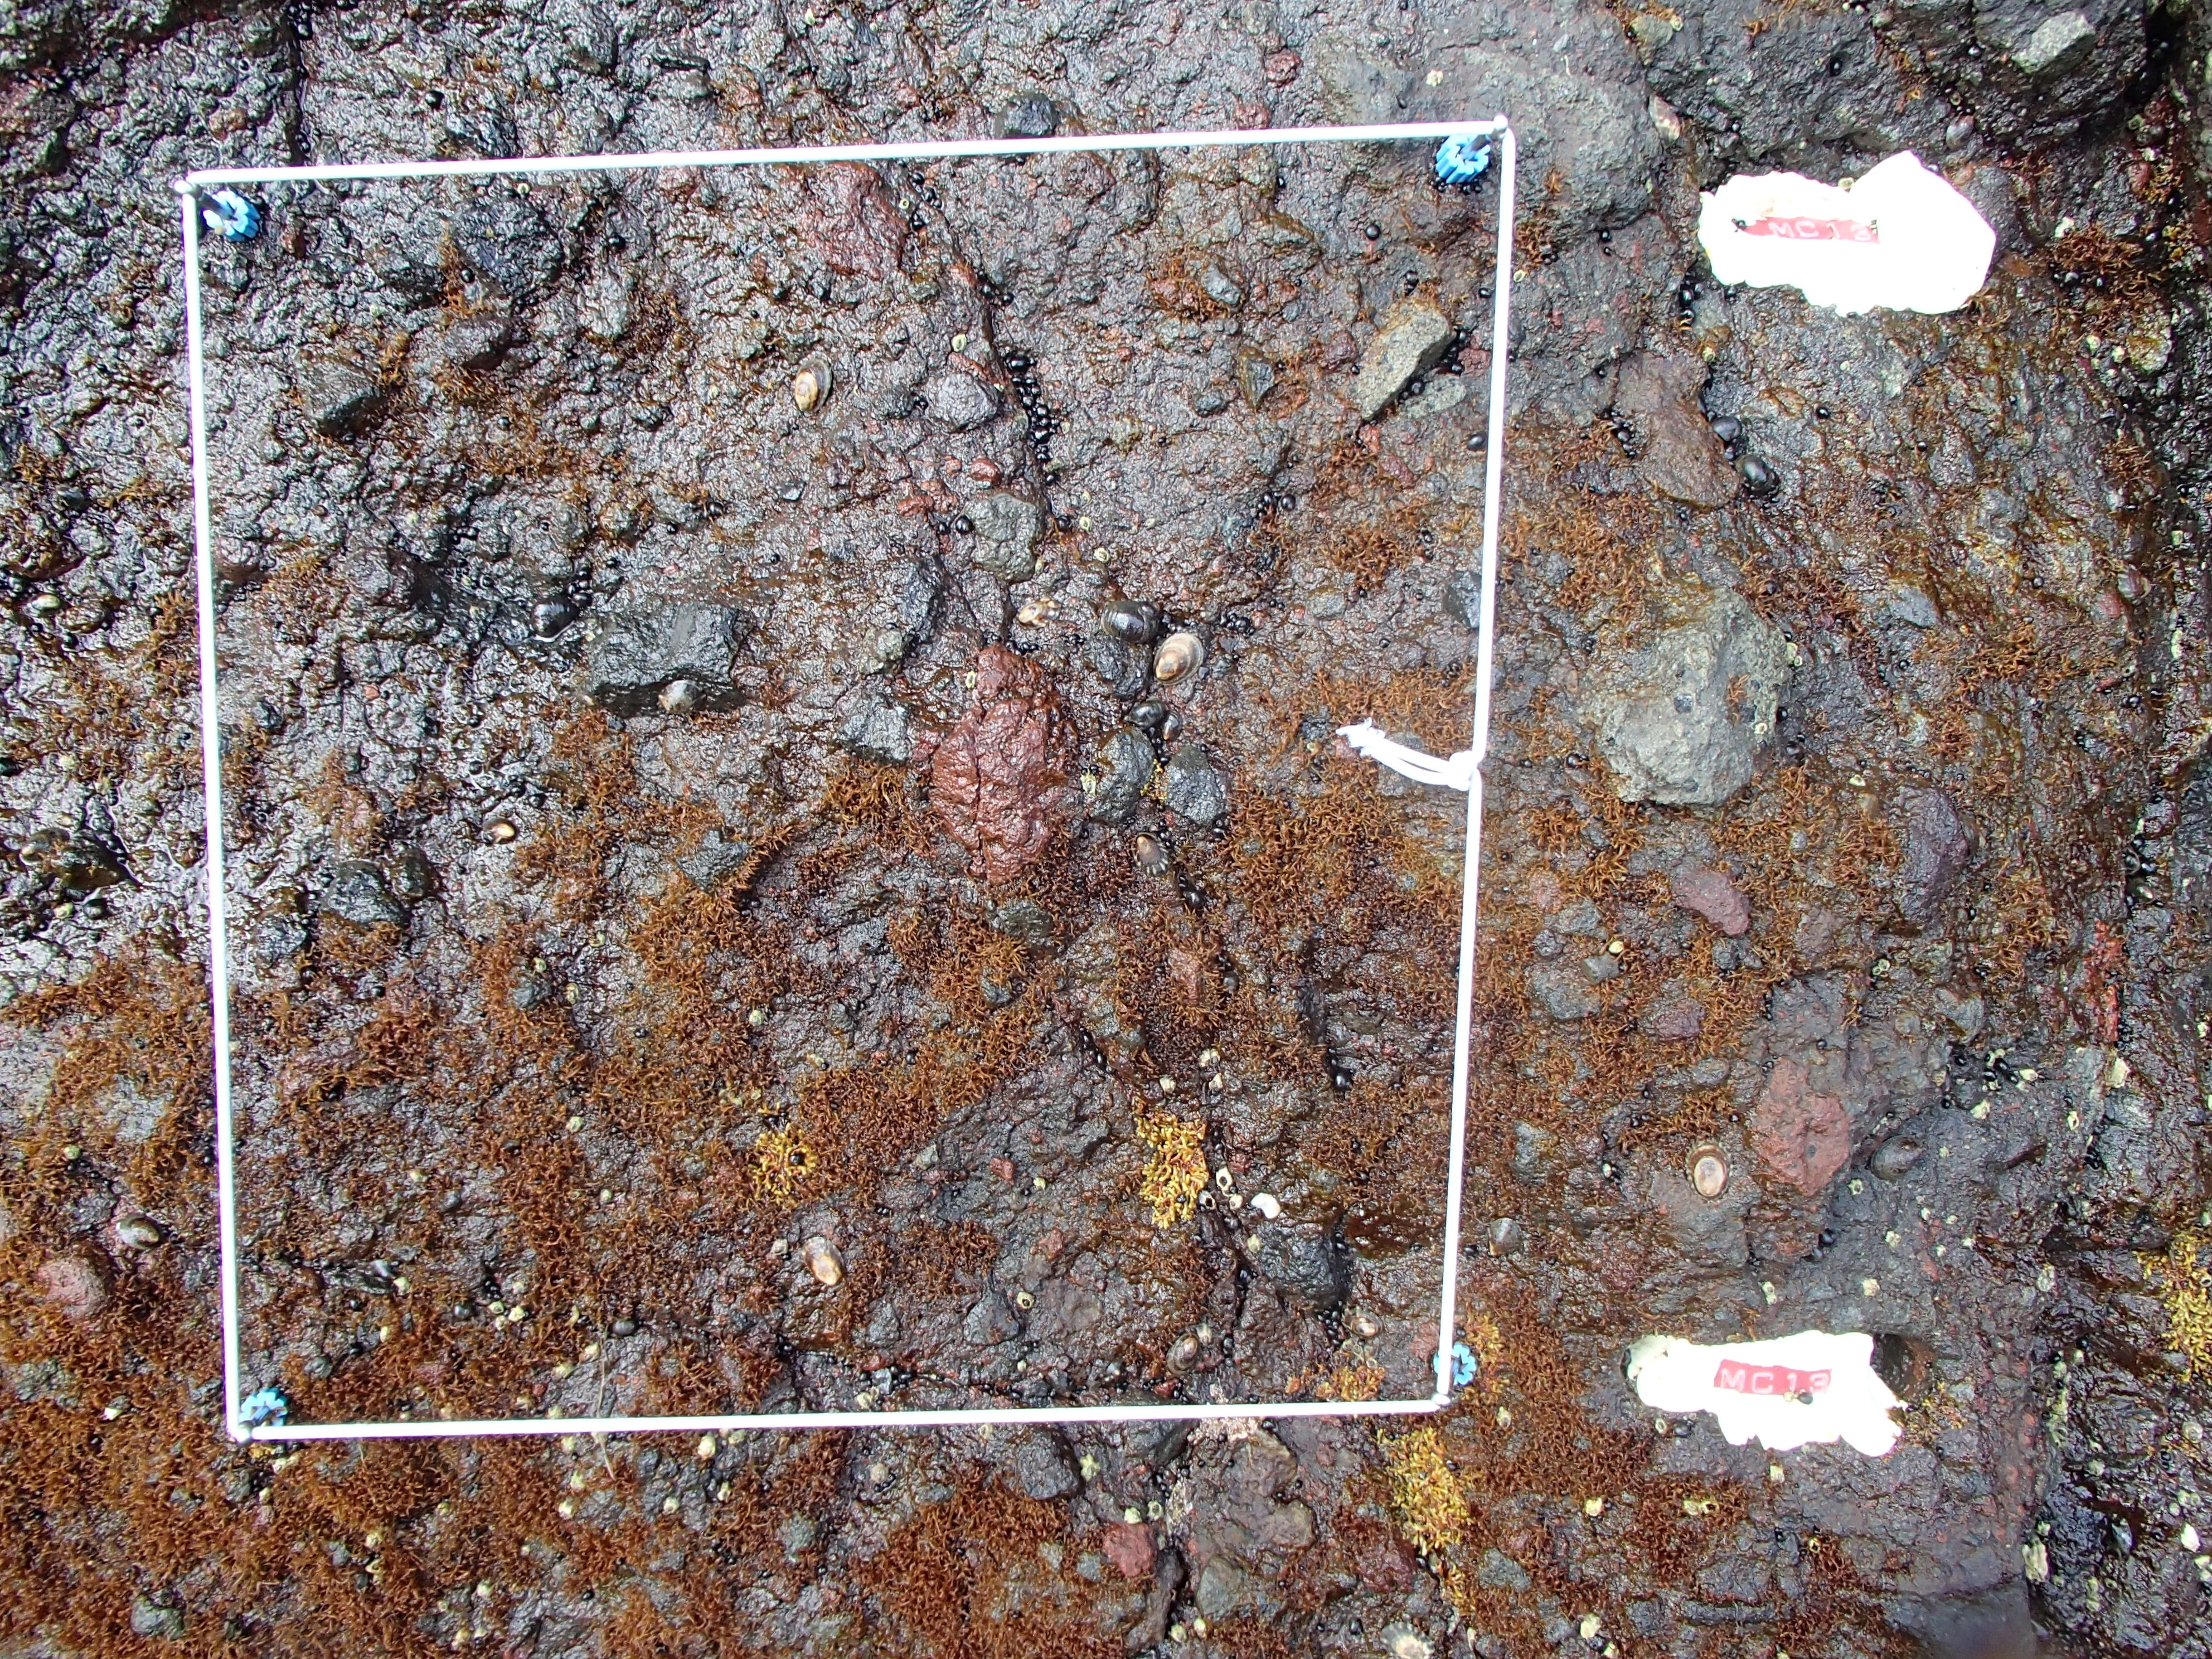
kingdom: Animalia
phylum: Arthropoda
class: Maxillopoda
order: Sessilia
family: Chthamalidae
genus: Chthamalus
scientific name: Chthamalus dalli
